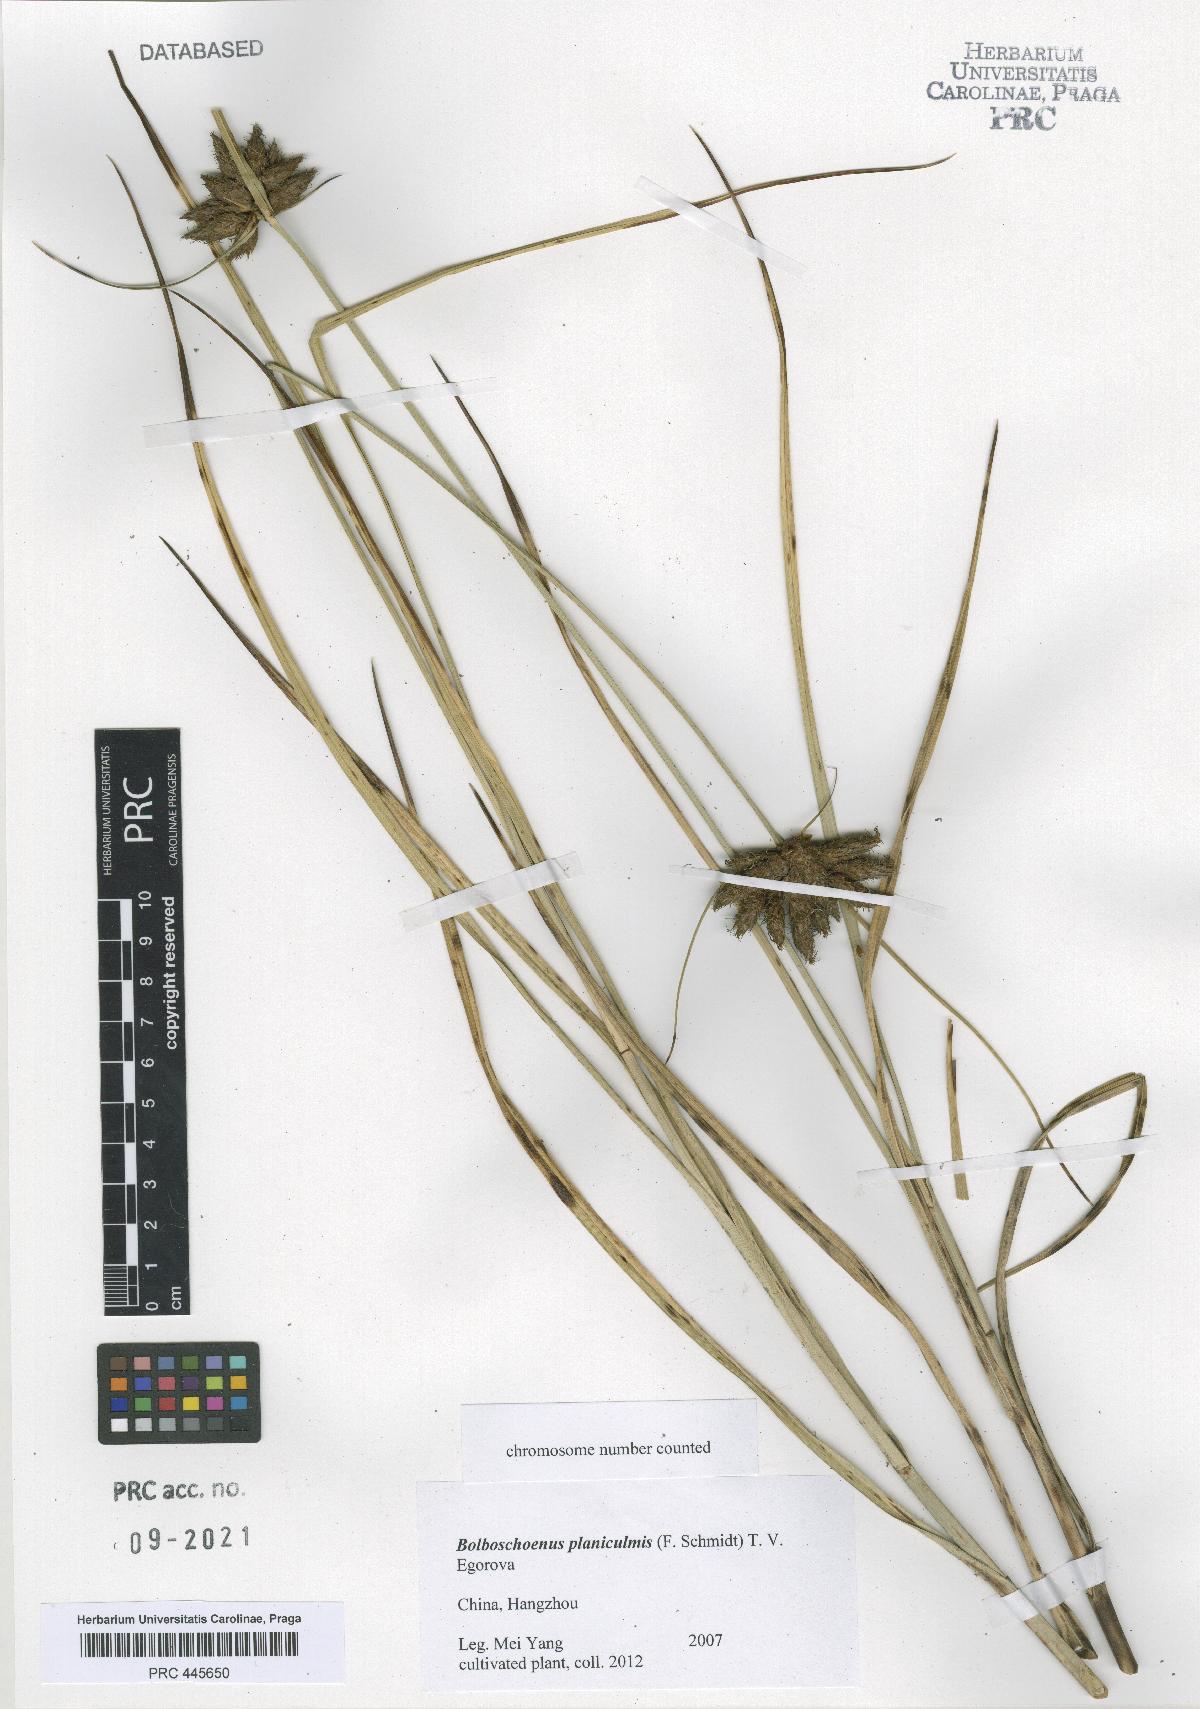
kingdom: Plantae
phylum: Tracheophyta
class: Liliopsida
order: Poales
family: Cyperaceae
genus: Bolboschoenus
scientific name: Bolboschoenus planiculmis
